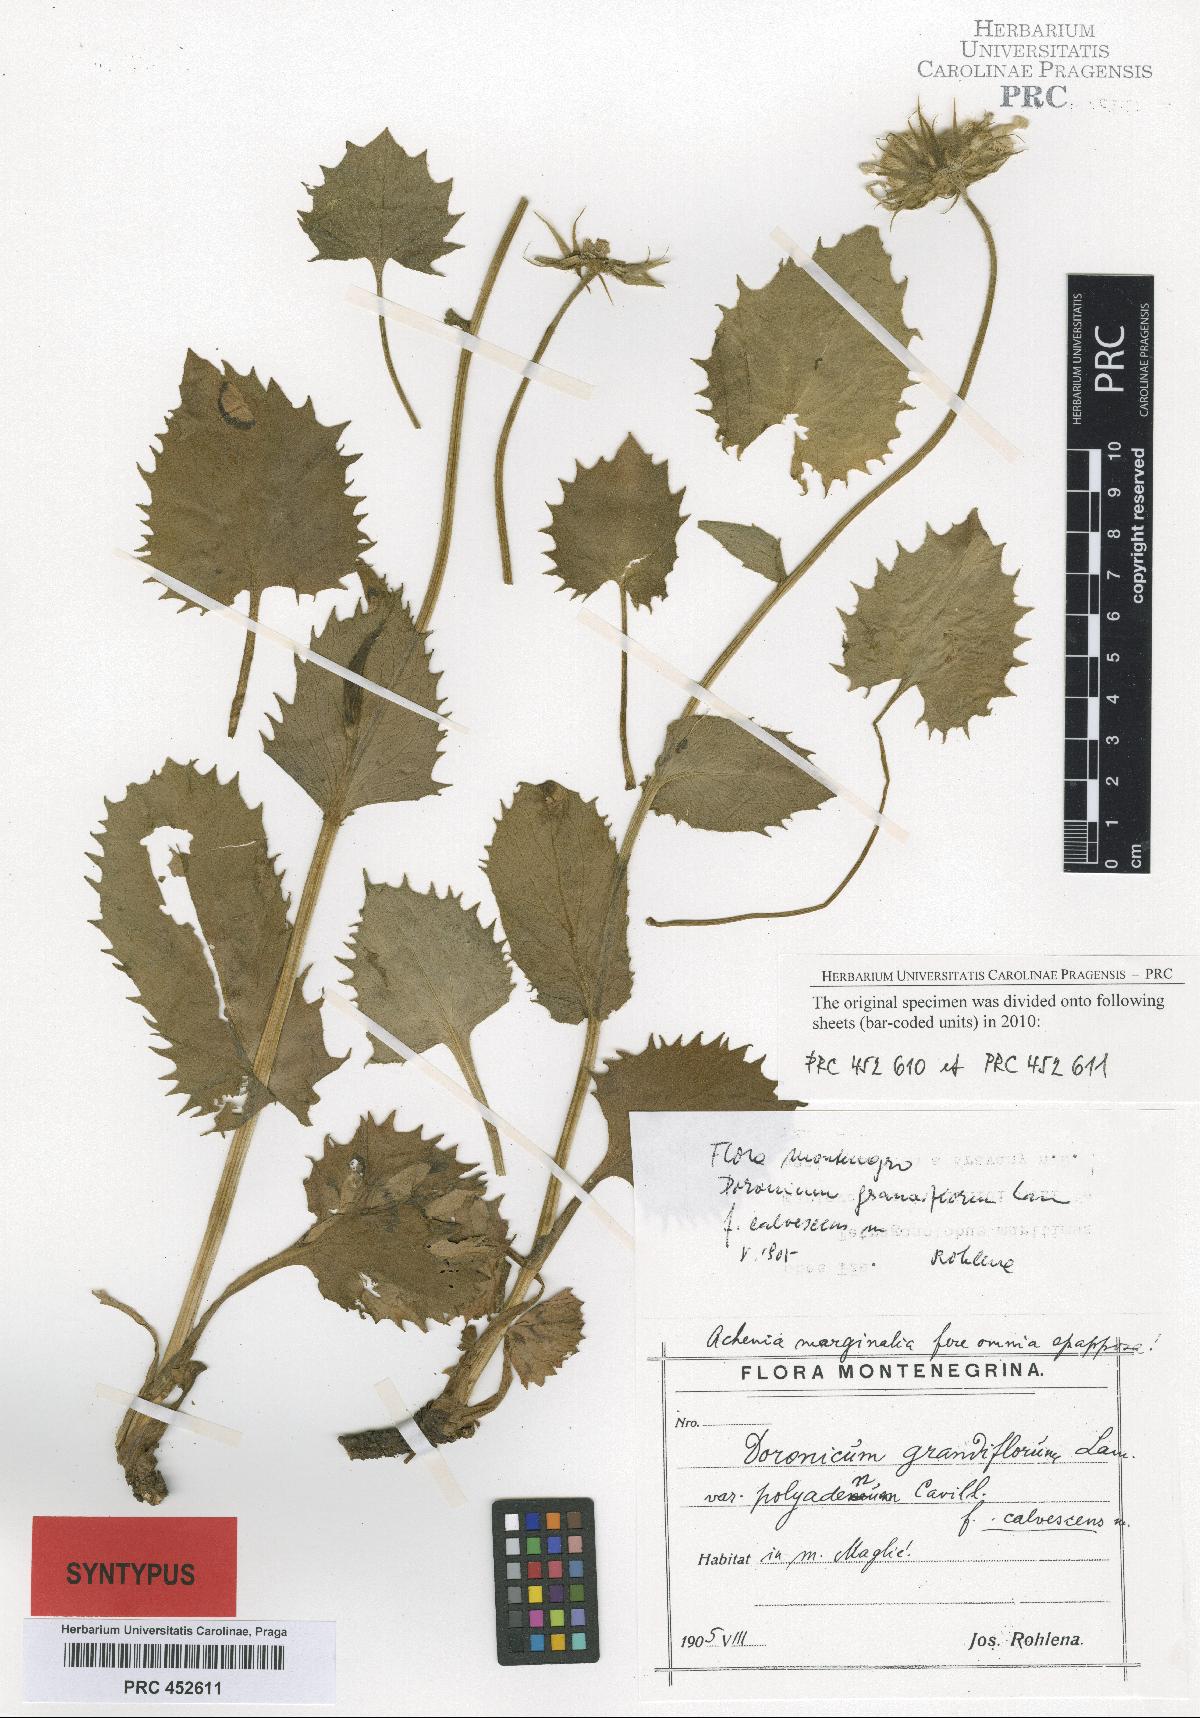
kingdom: Plantae
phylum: Tracheophyta
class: Magnoliopsida
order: Asterales
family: Asteraceae
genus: Doronicum
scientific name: Doronicum grandiflorum
